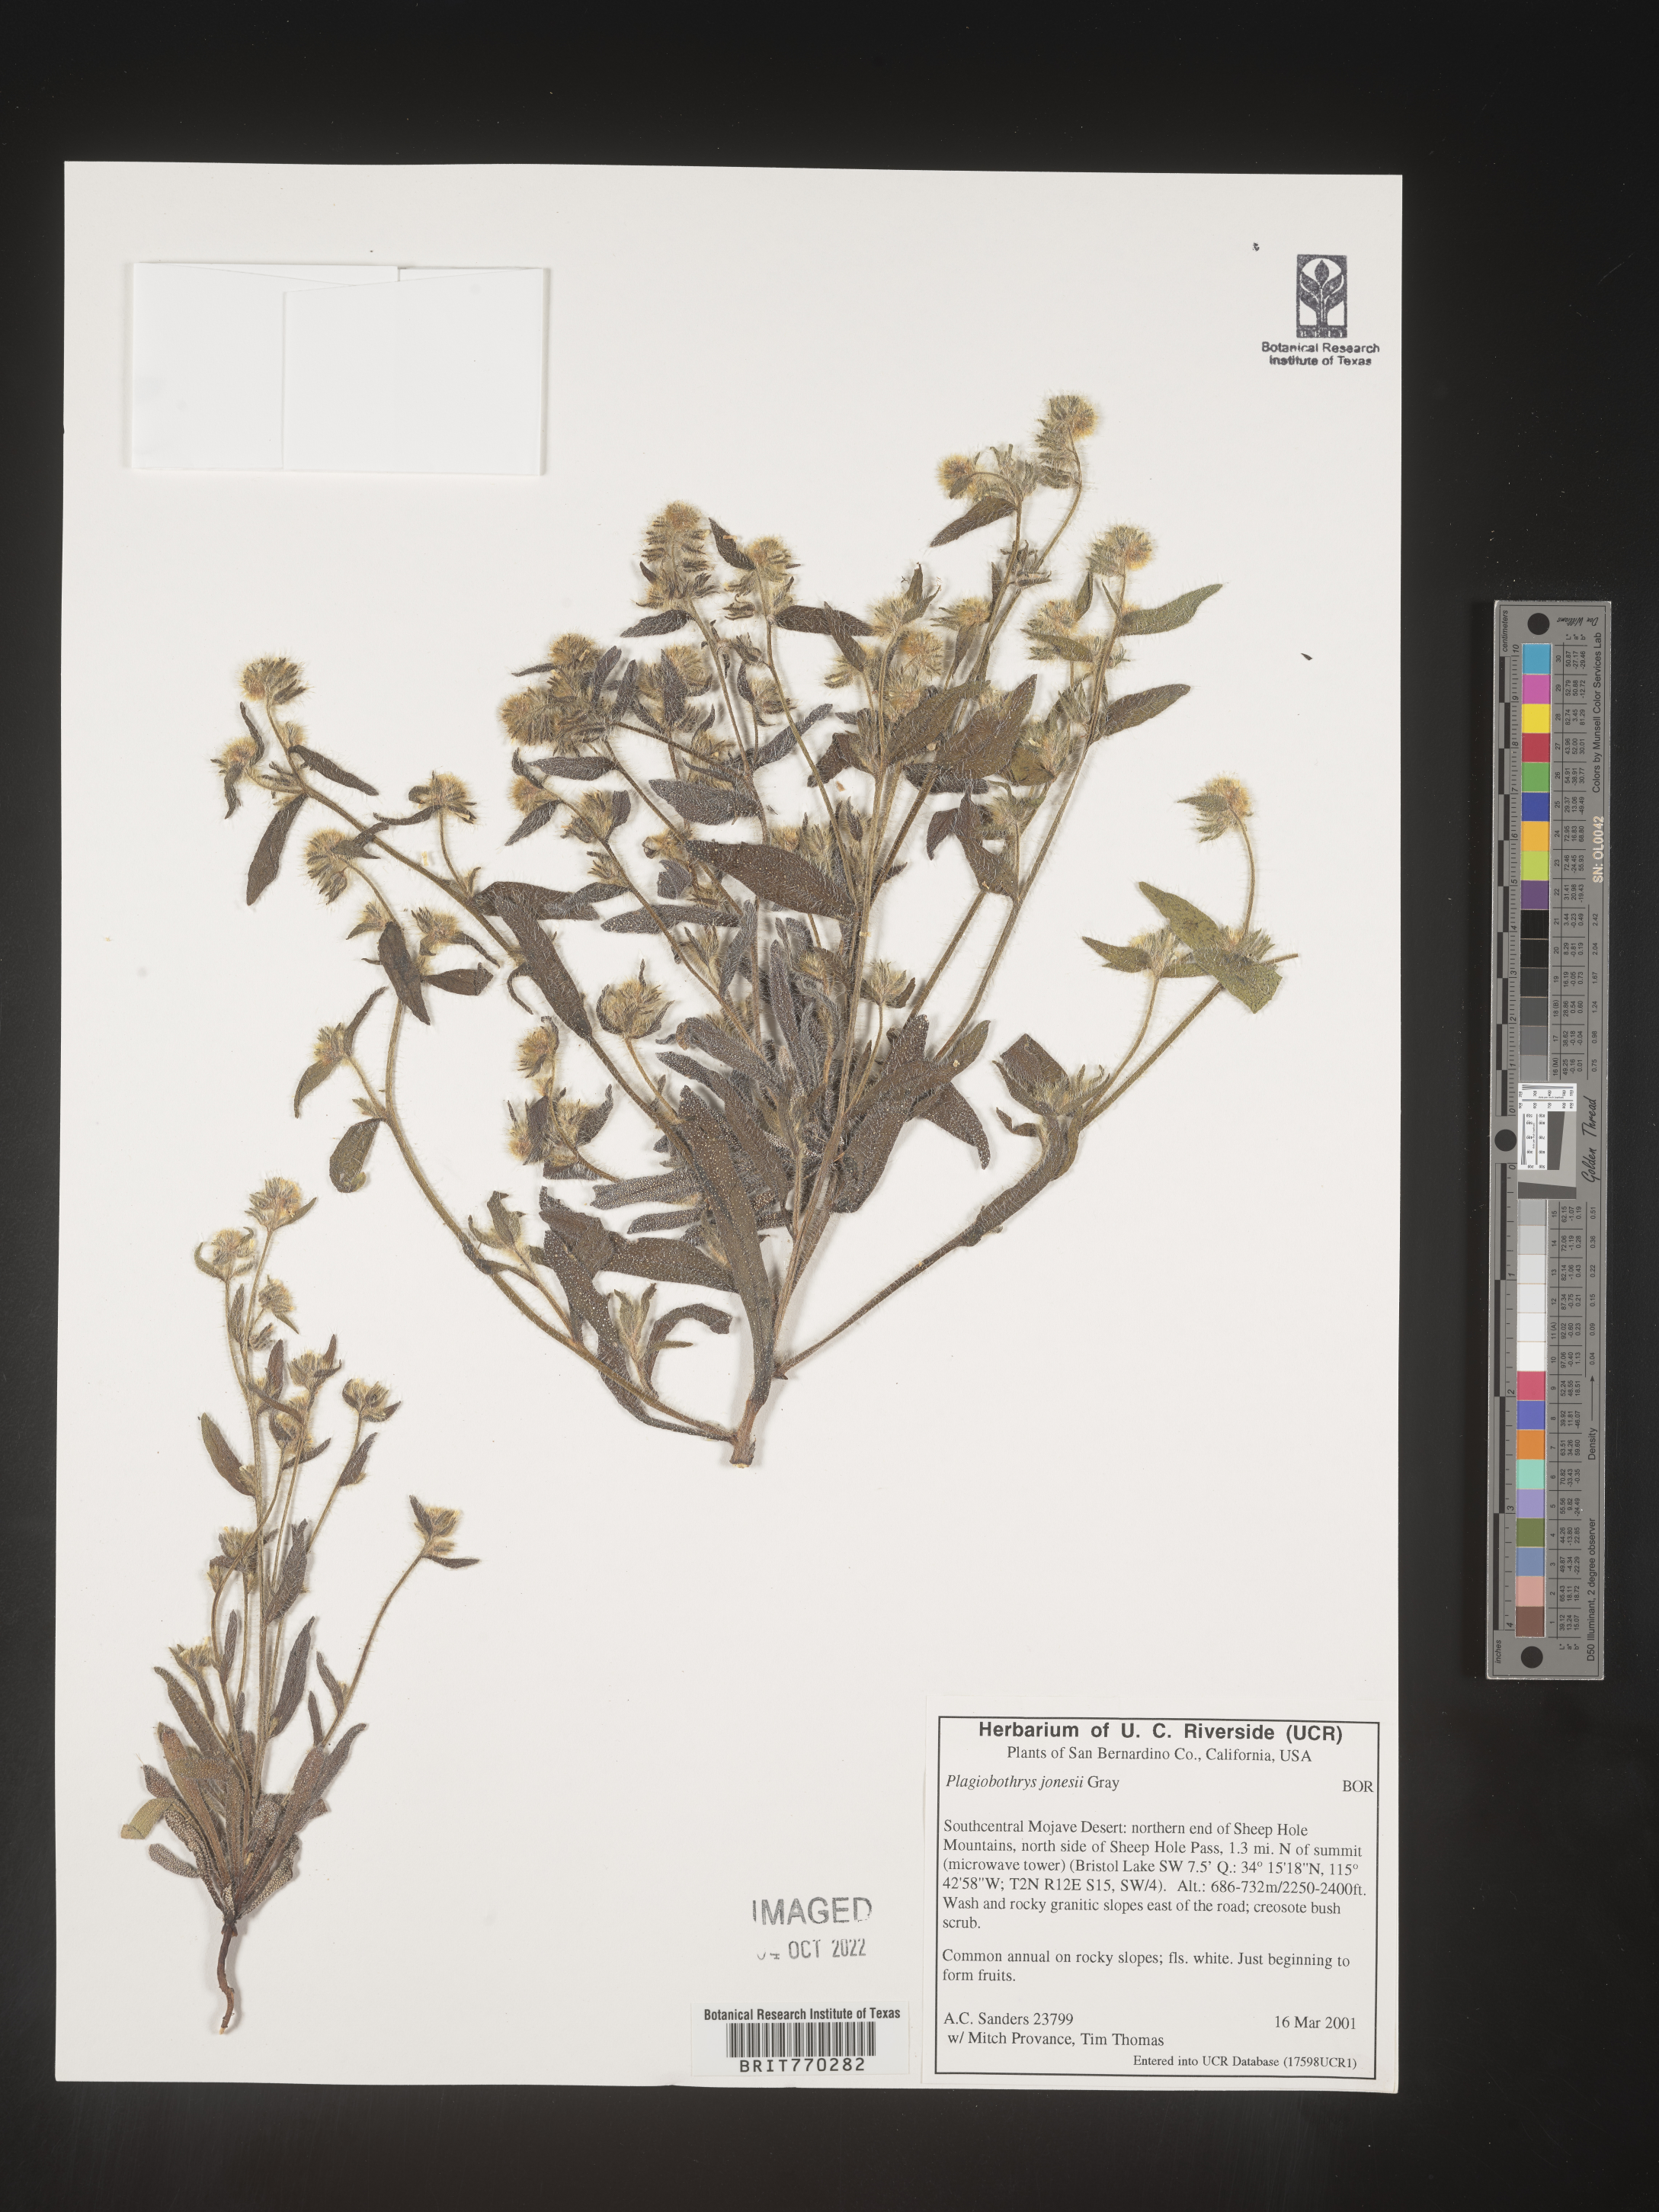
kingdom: Plantae
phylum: Tracheophyta
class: Magnoliopsida
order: Boraginales
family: Boraginaceae
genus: Plagiobothrys
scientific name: Plagiobothrys
